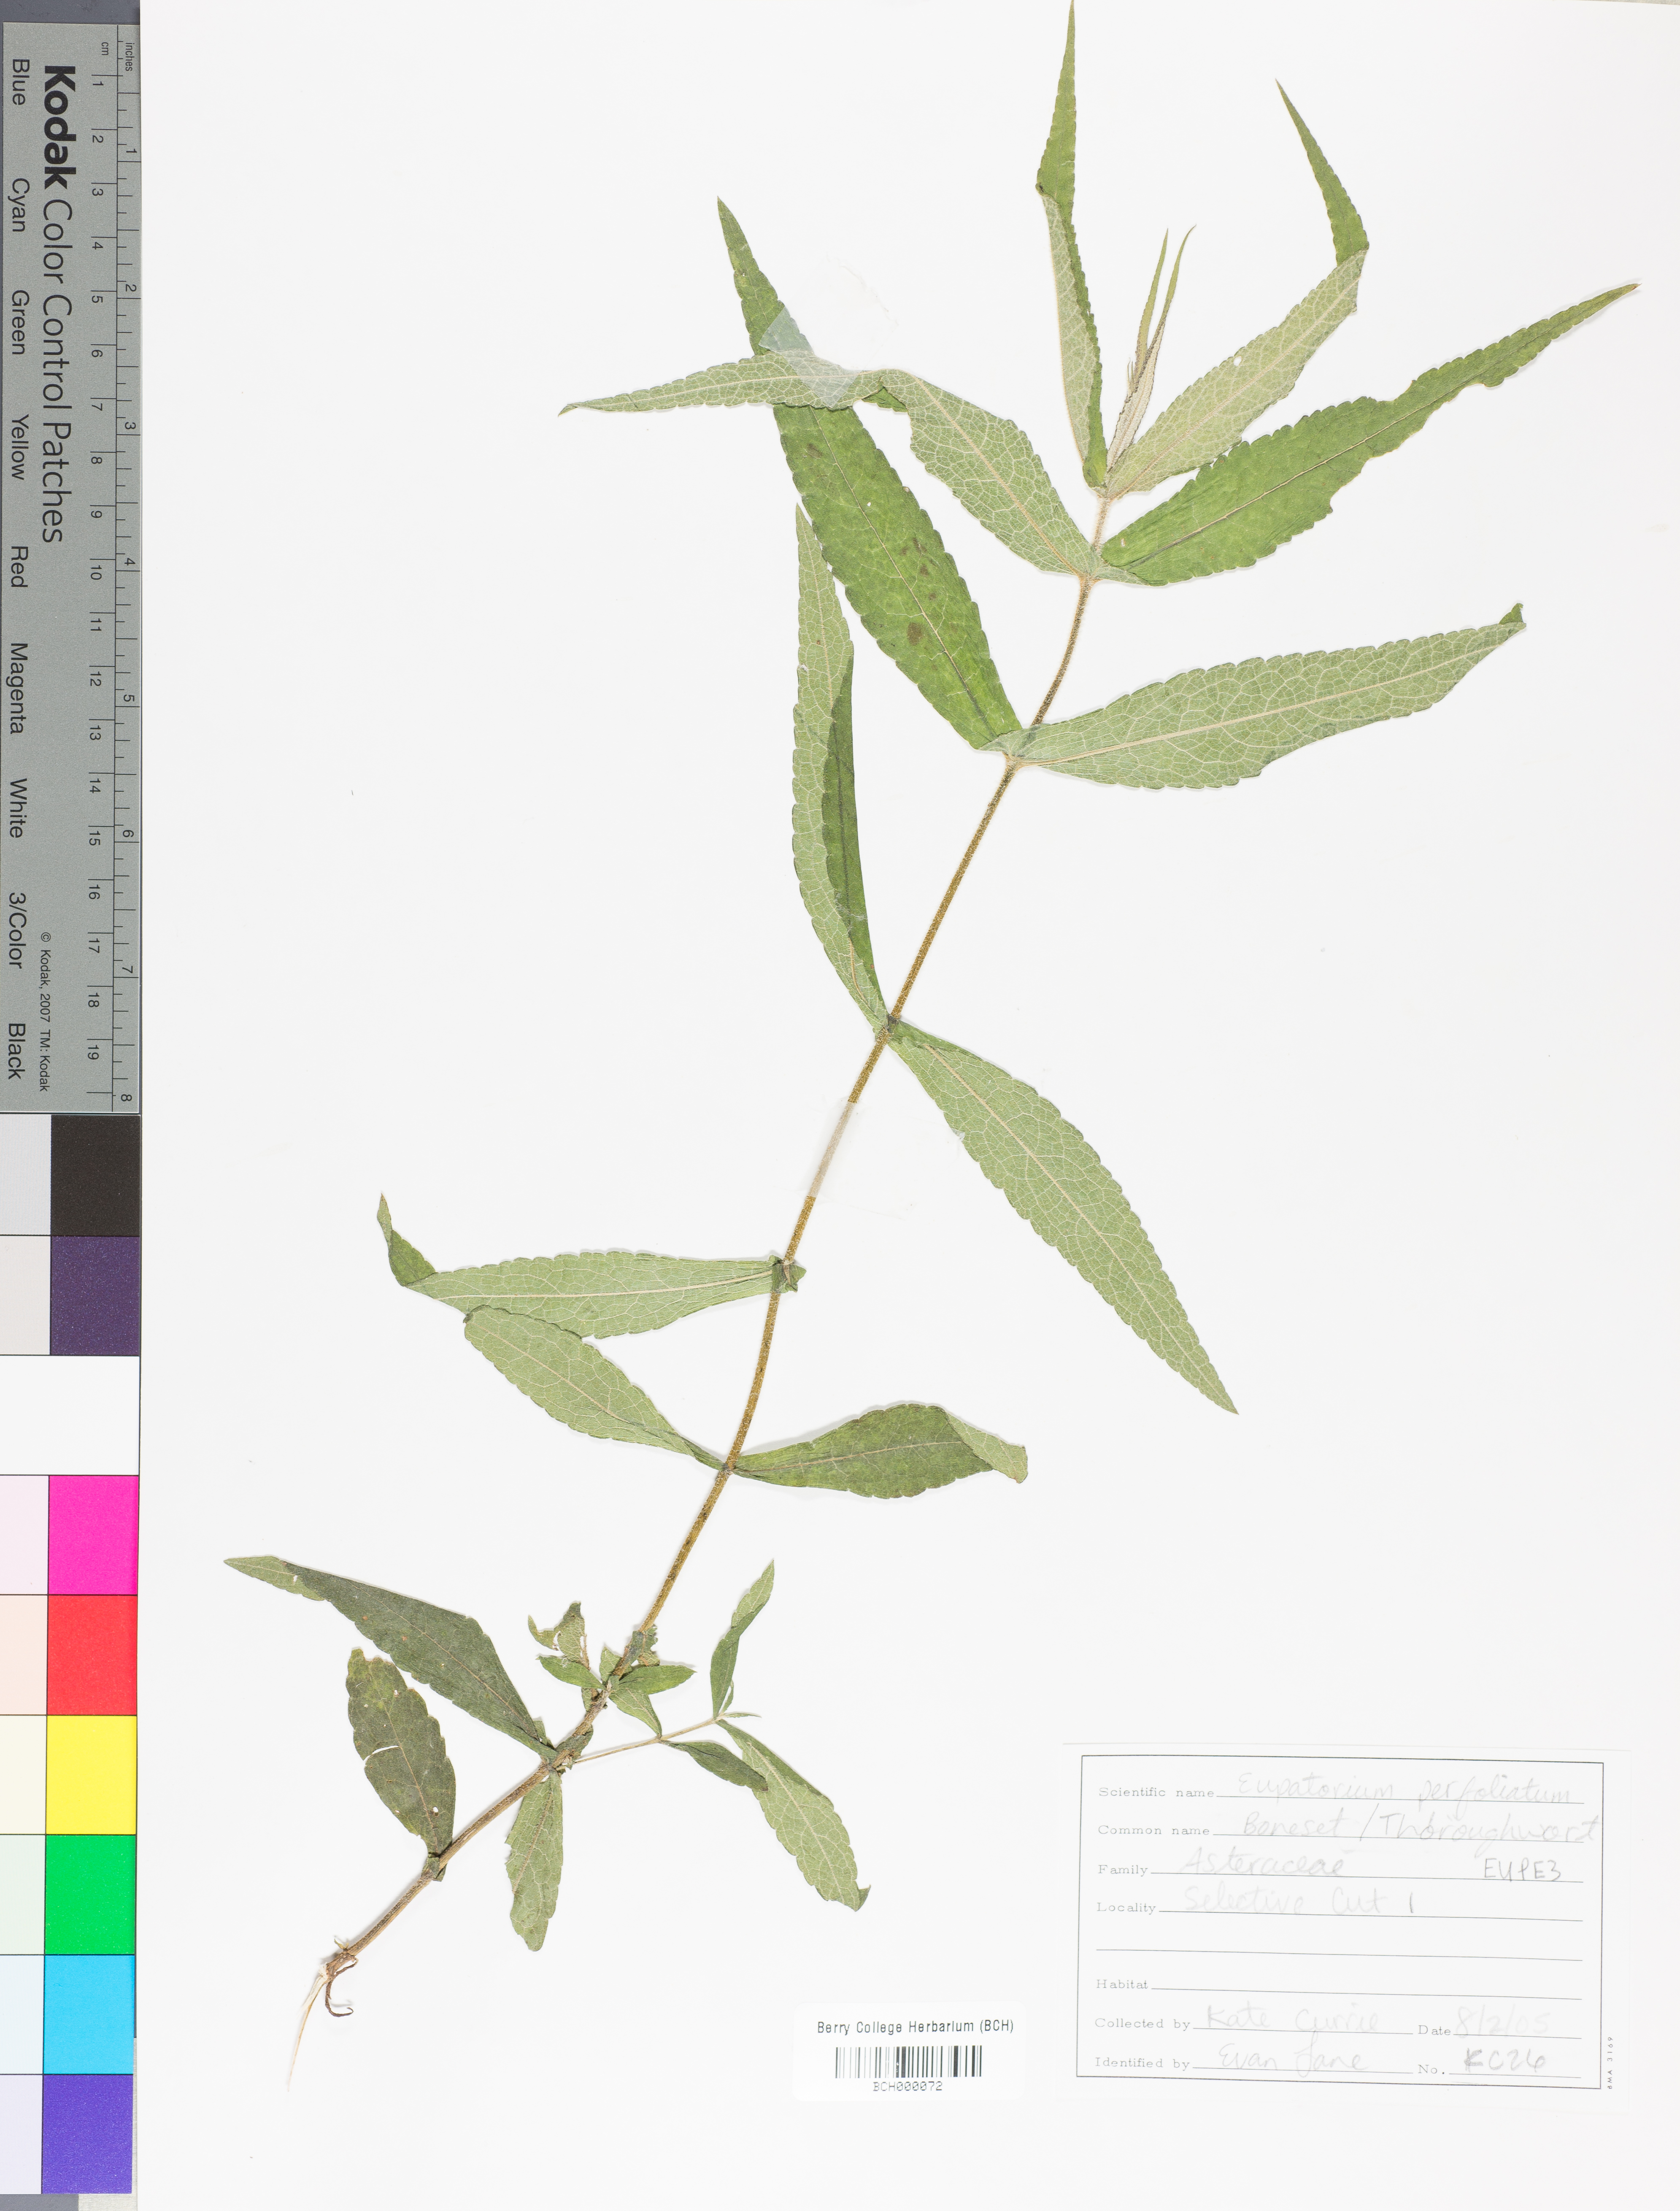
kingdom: Plantae
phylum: Tracheophyta
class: Magnoliopsida
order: Asterales
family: Asteraceae
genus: Eupatorium
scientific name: Eupatorium perfoliatum
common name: Boneset
